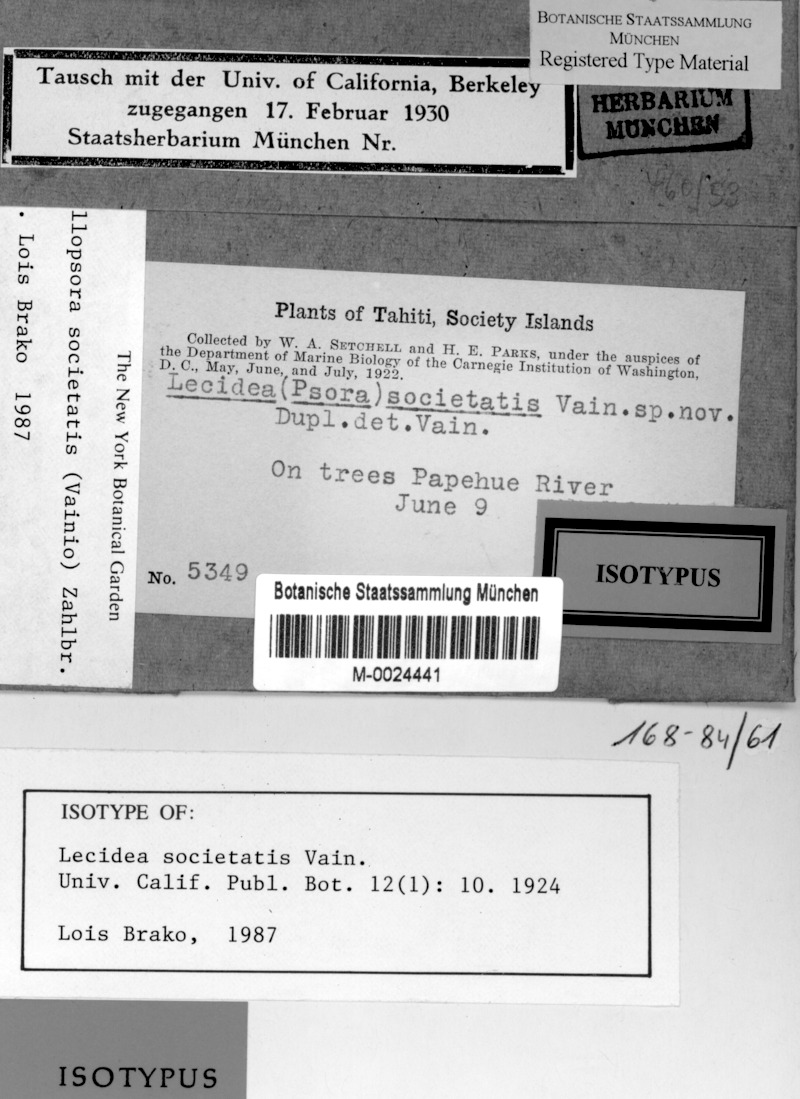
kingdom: Fungi
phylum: Ascomycota
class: Lecanoromycetes
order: Lecanorales
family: Ramalinaceae
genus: Phyllopsora
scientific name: Phyllopsora societatis
